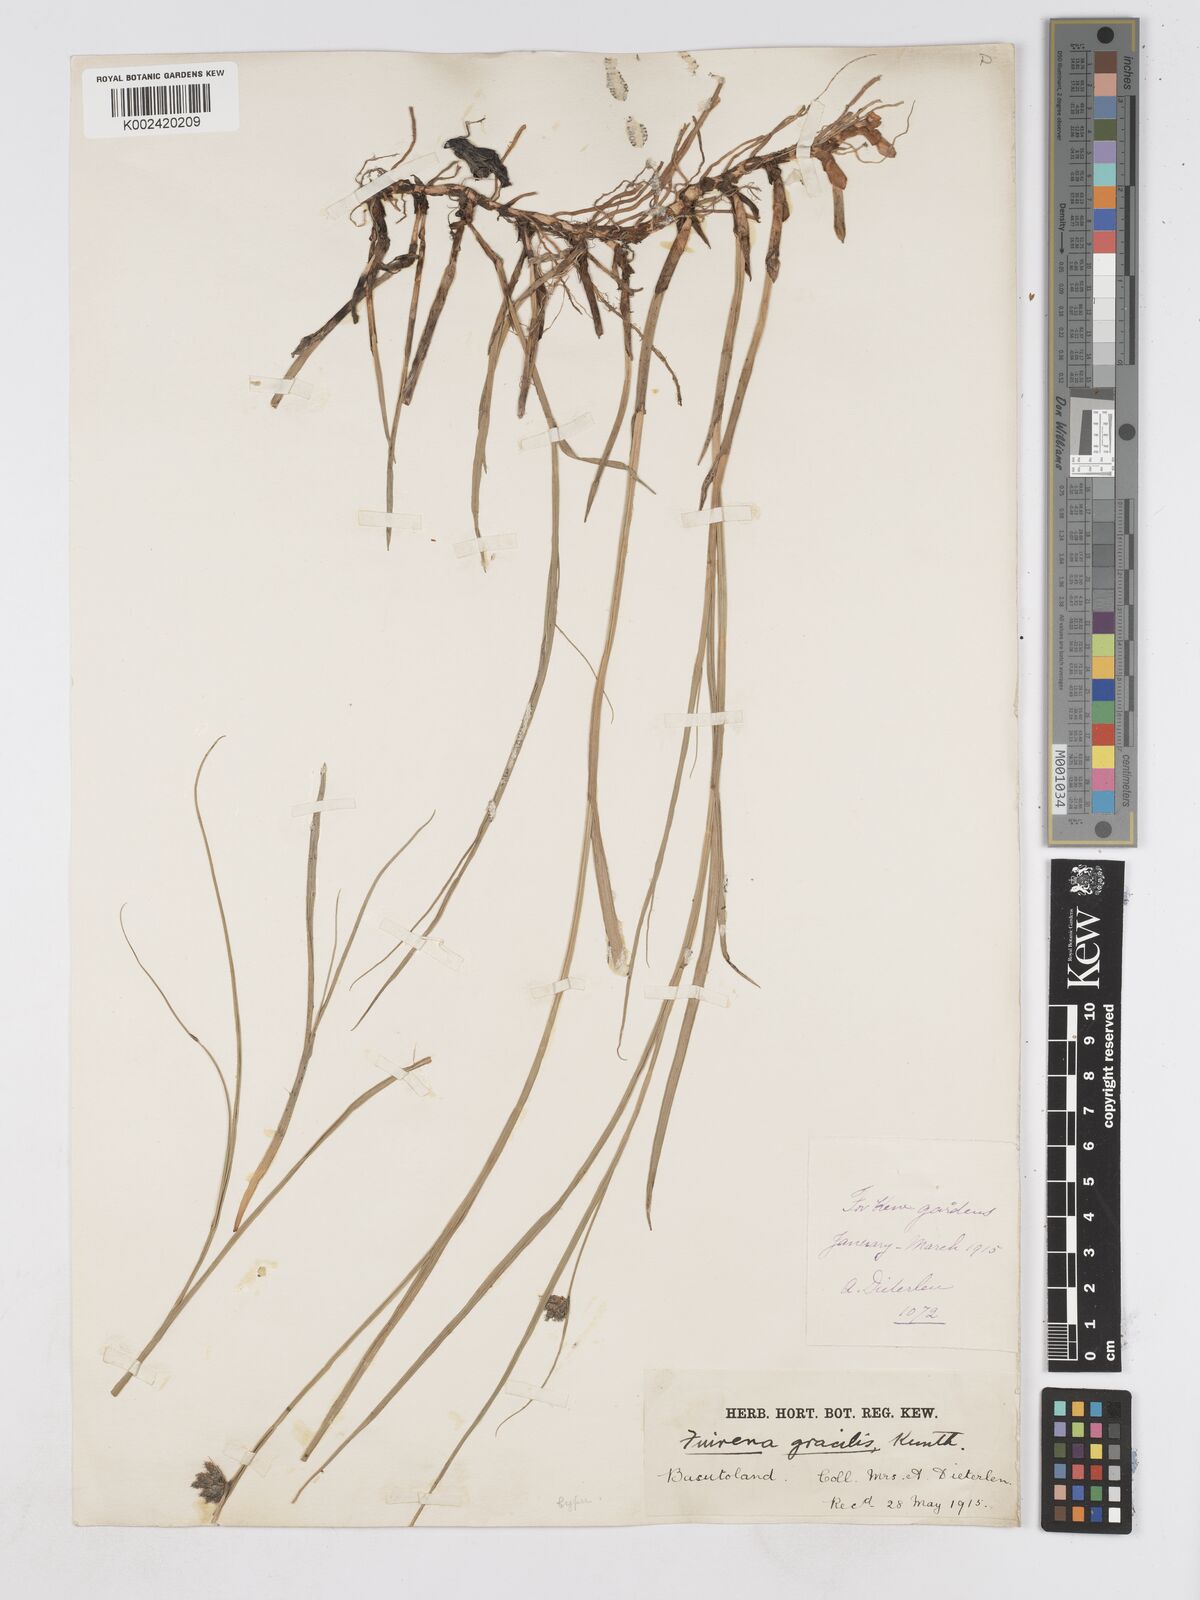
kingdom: Plantae
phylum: Tracheophyta
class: Liliopsida
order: Poales
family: Cyperaceae
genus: Fuirena
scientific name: Fuirena coerulescens
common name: Blue umbrella-sedge
